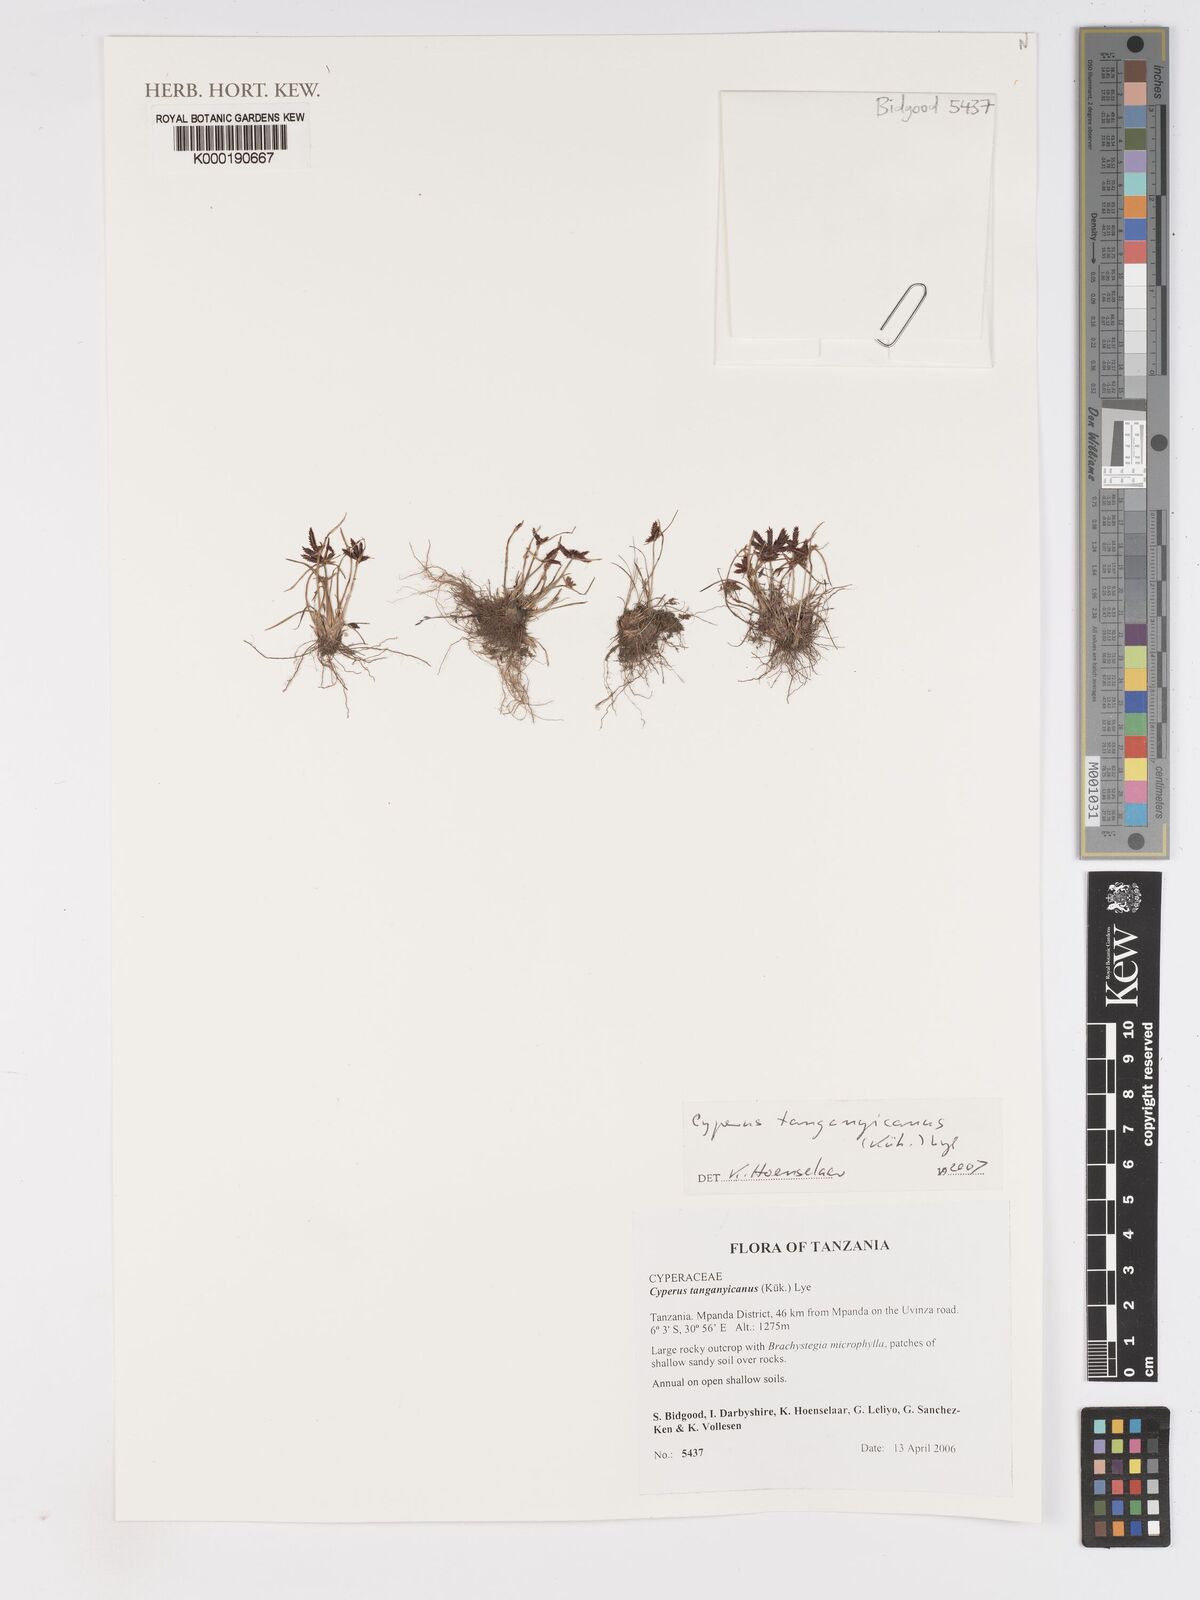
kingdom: Plantae
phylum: Tracheophyta
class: Liliopsida
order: Poales
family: Cyperaceae
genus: Cyperus
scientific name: Cyperus
